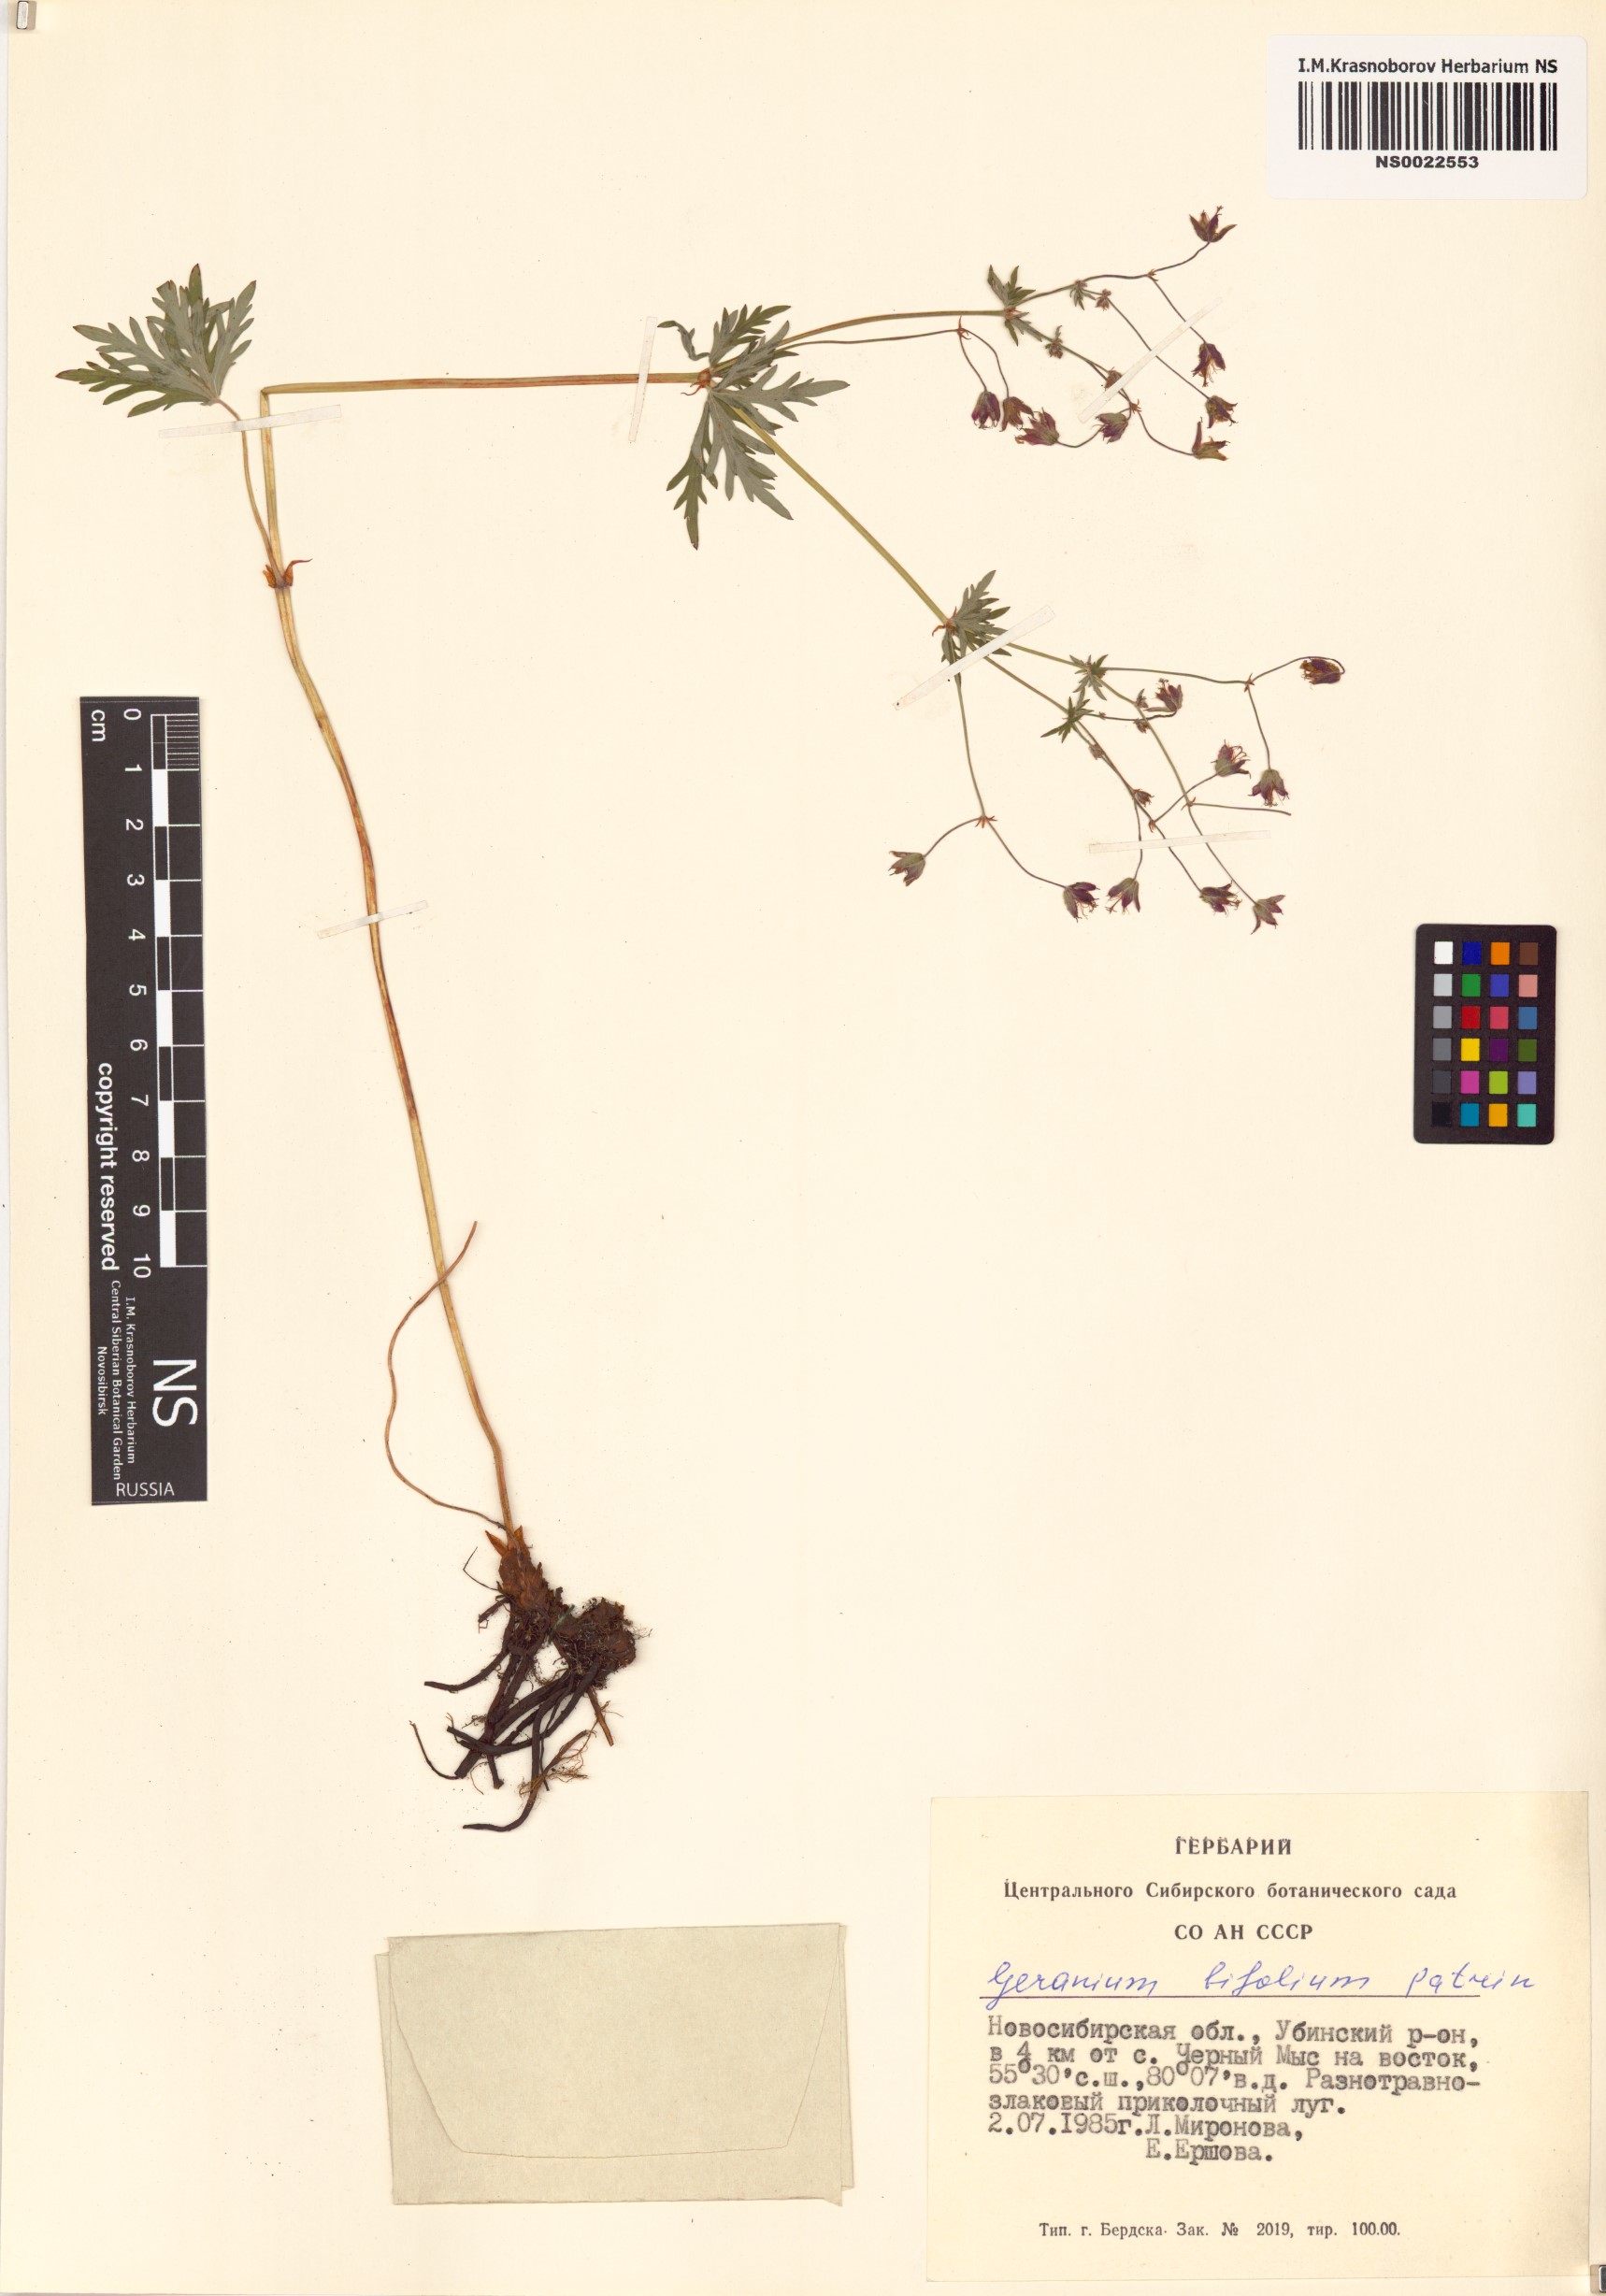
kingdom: Plantae
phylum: Tracheophyta
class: Magnoliopsida
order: Geraniales
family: Geraniaceae
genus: Geranium
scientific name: Geranium pseudosibiricum
